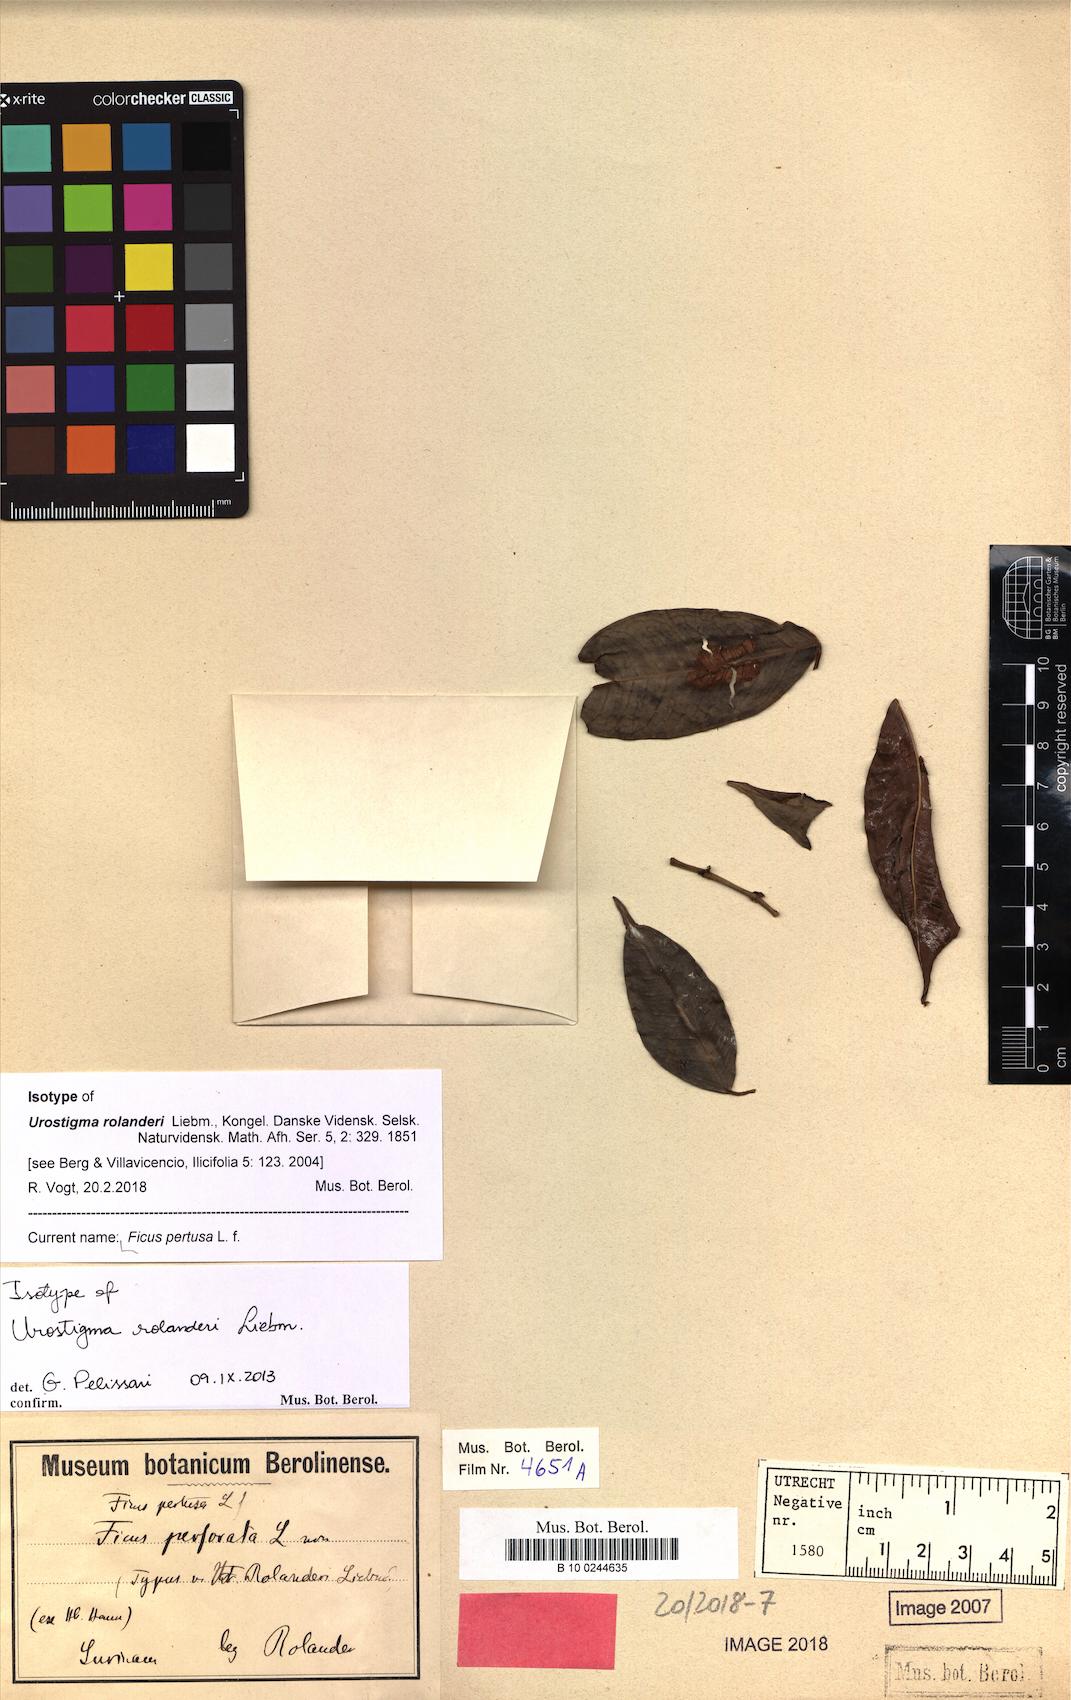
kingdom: Plantae
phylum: Tracheophyta
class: Magnoliopsida
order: Rosales
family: Moraceae
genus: Ficus
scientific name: Ficus pertusa
